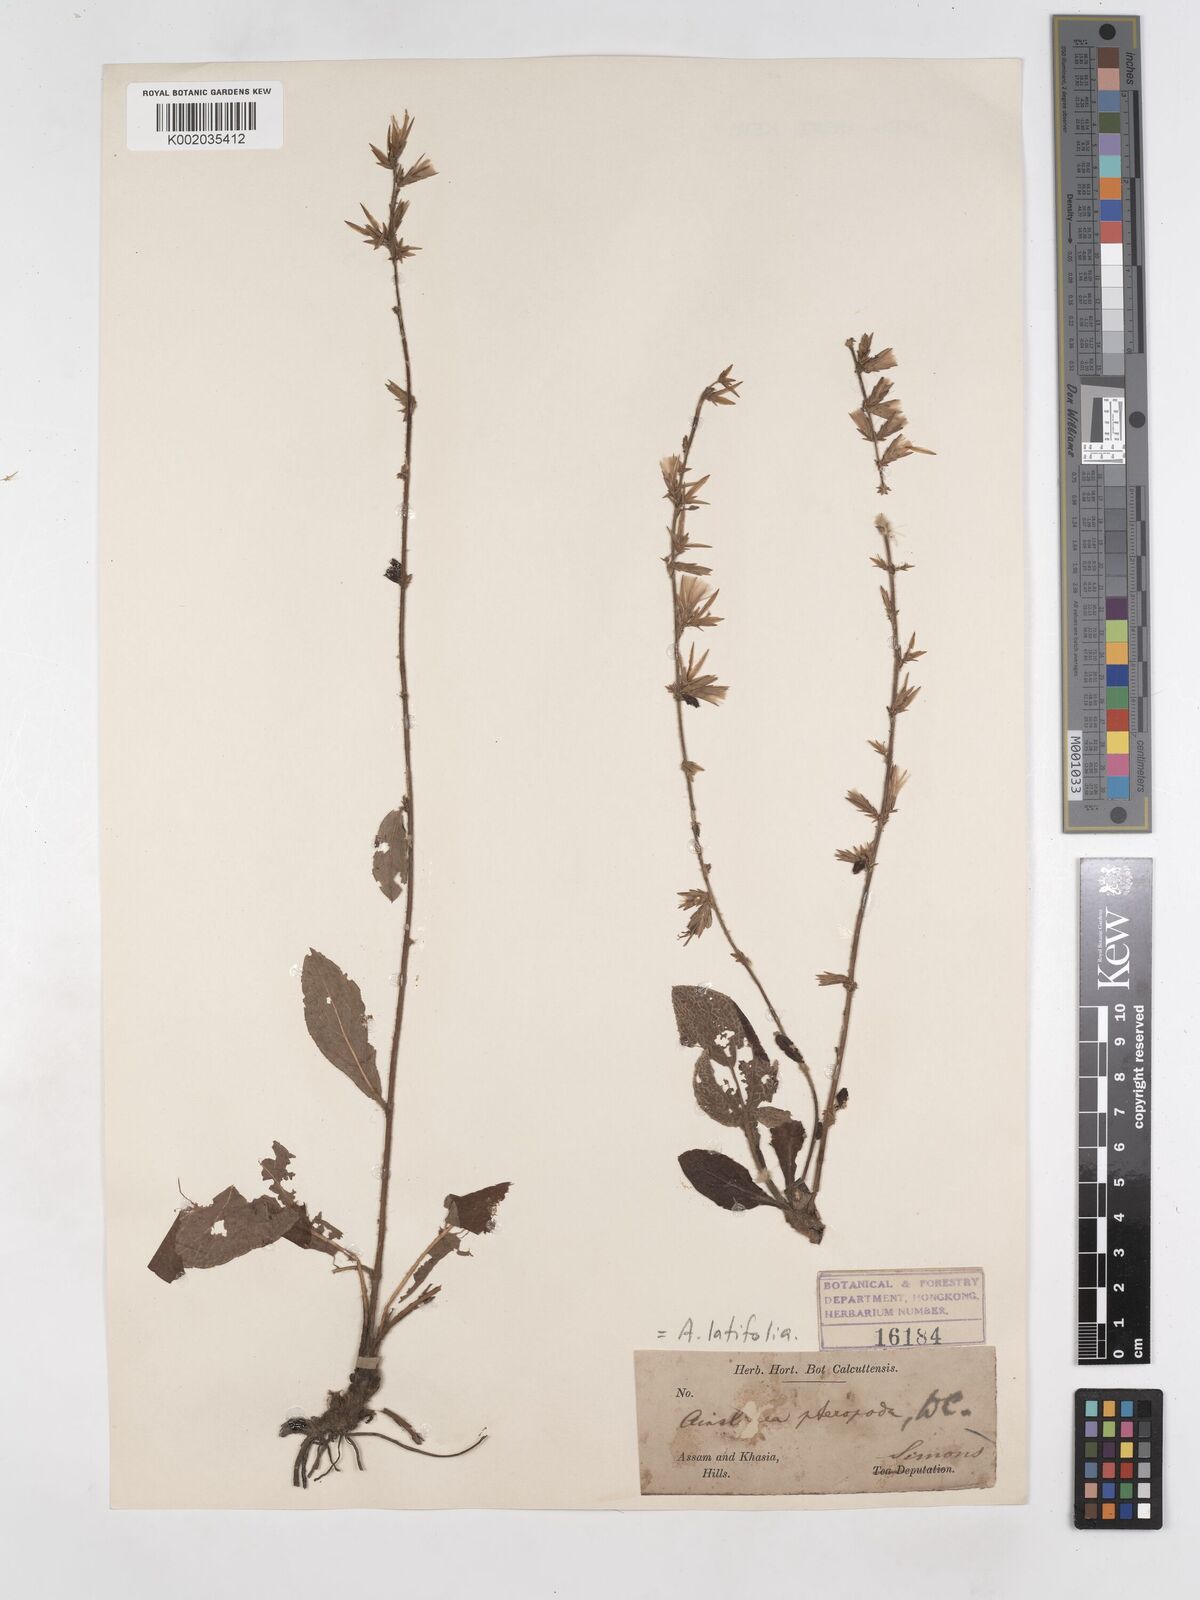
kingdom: Plantae
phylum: Tracheophyta
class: Magnoliopsida
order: Asterales
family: Asteraceae
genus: Ainsliaea
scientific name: Ainsliaea latifolia
